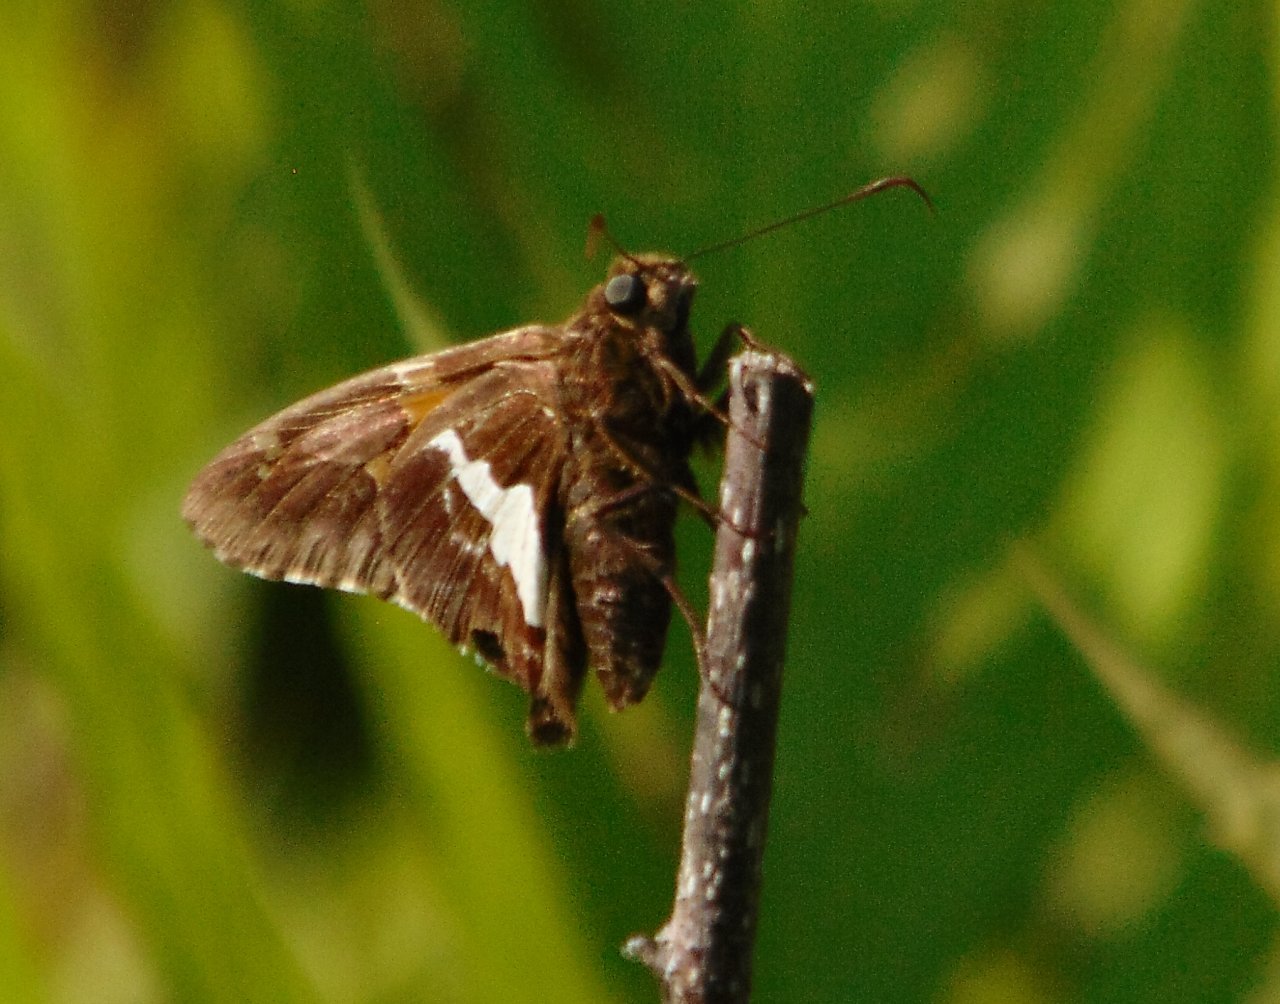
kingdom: Animalia
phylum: Arthropoda
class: Insecta
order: Lepidoptera
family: Hesperiidae
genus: Epargyreus
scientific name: Epargyreus clarus
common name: Silver-spotted Skipper
